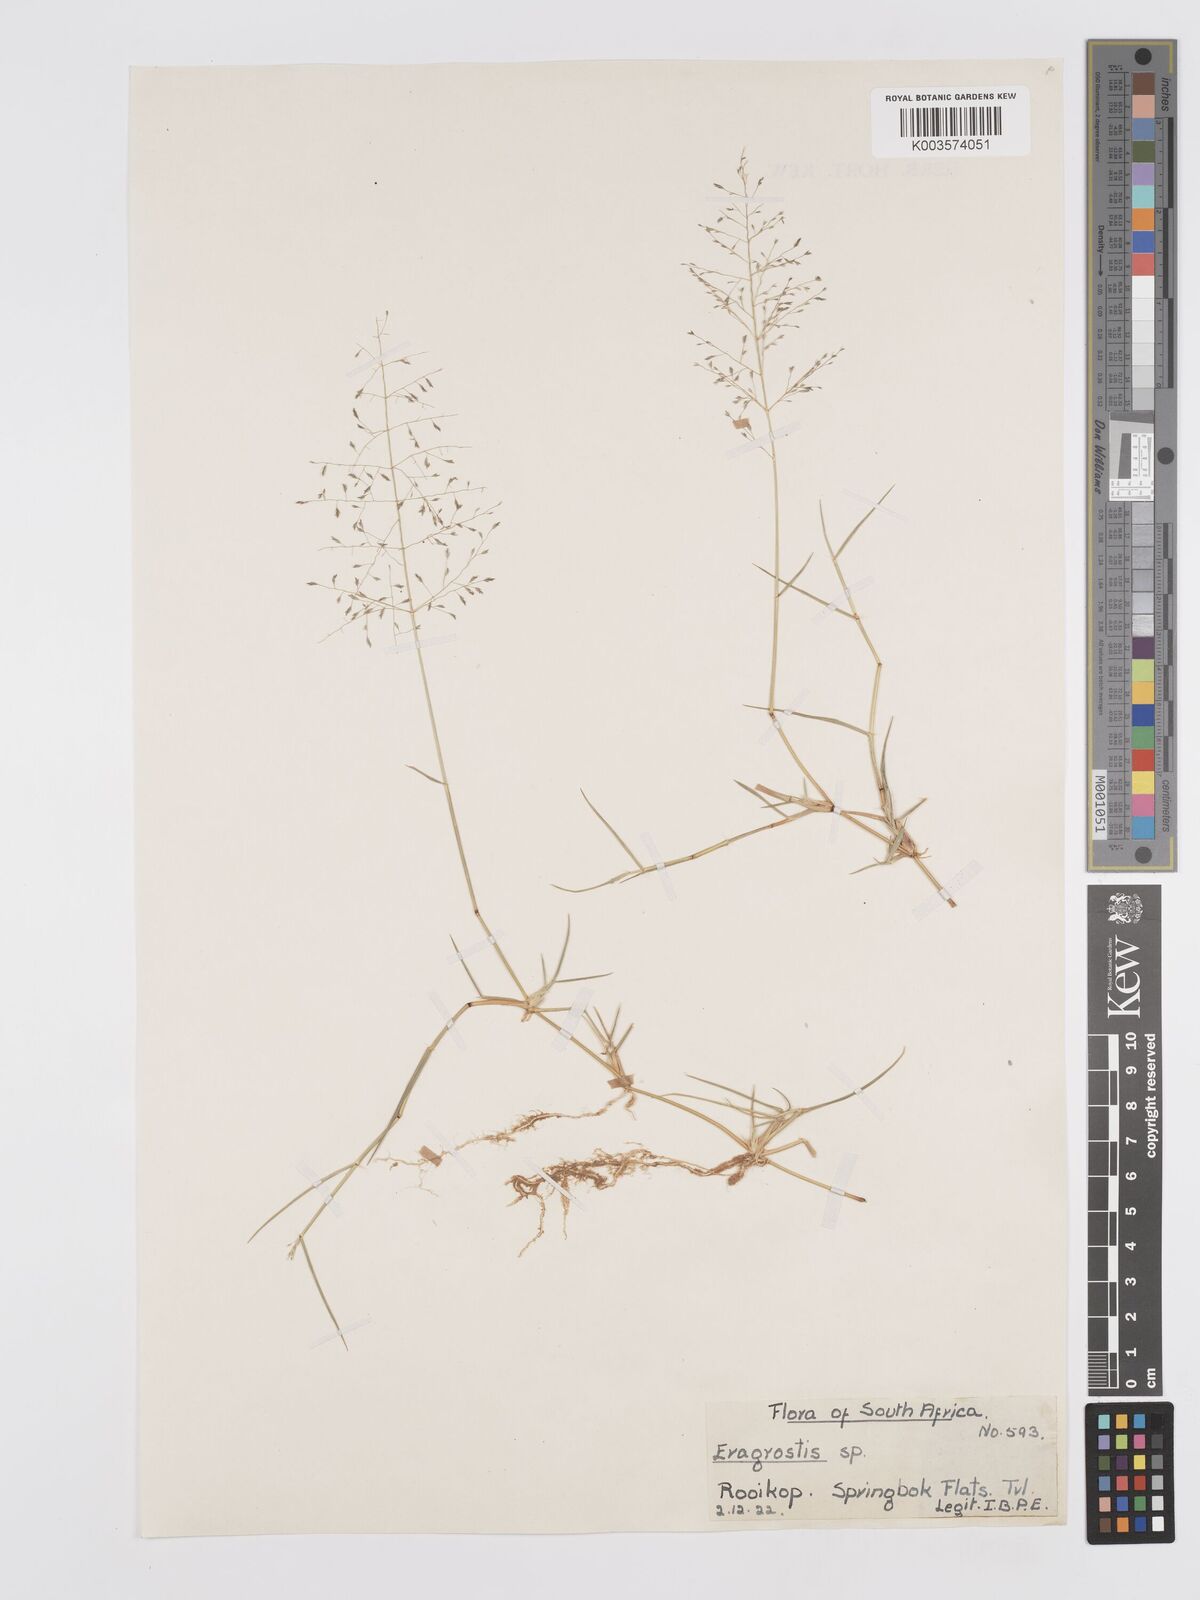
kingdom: Plantae
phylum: Tracheophyta
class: Liliopsida
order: Poales
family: Poaceae
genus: Eragrostis
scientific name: Eragrostis cylindriflora
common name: Cylinderflower lovegrass
